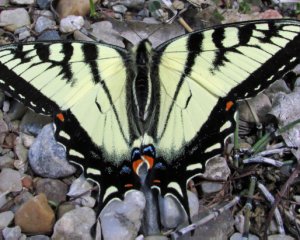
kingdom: Animalia
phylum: Arthropoda
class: Insecta
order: Lepidoptera
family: Papilionidae
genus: Pterourus
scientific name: Pterourus canadensis
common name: Canadian Tiger Swallowtail
